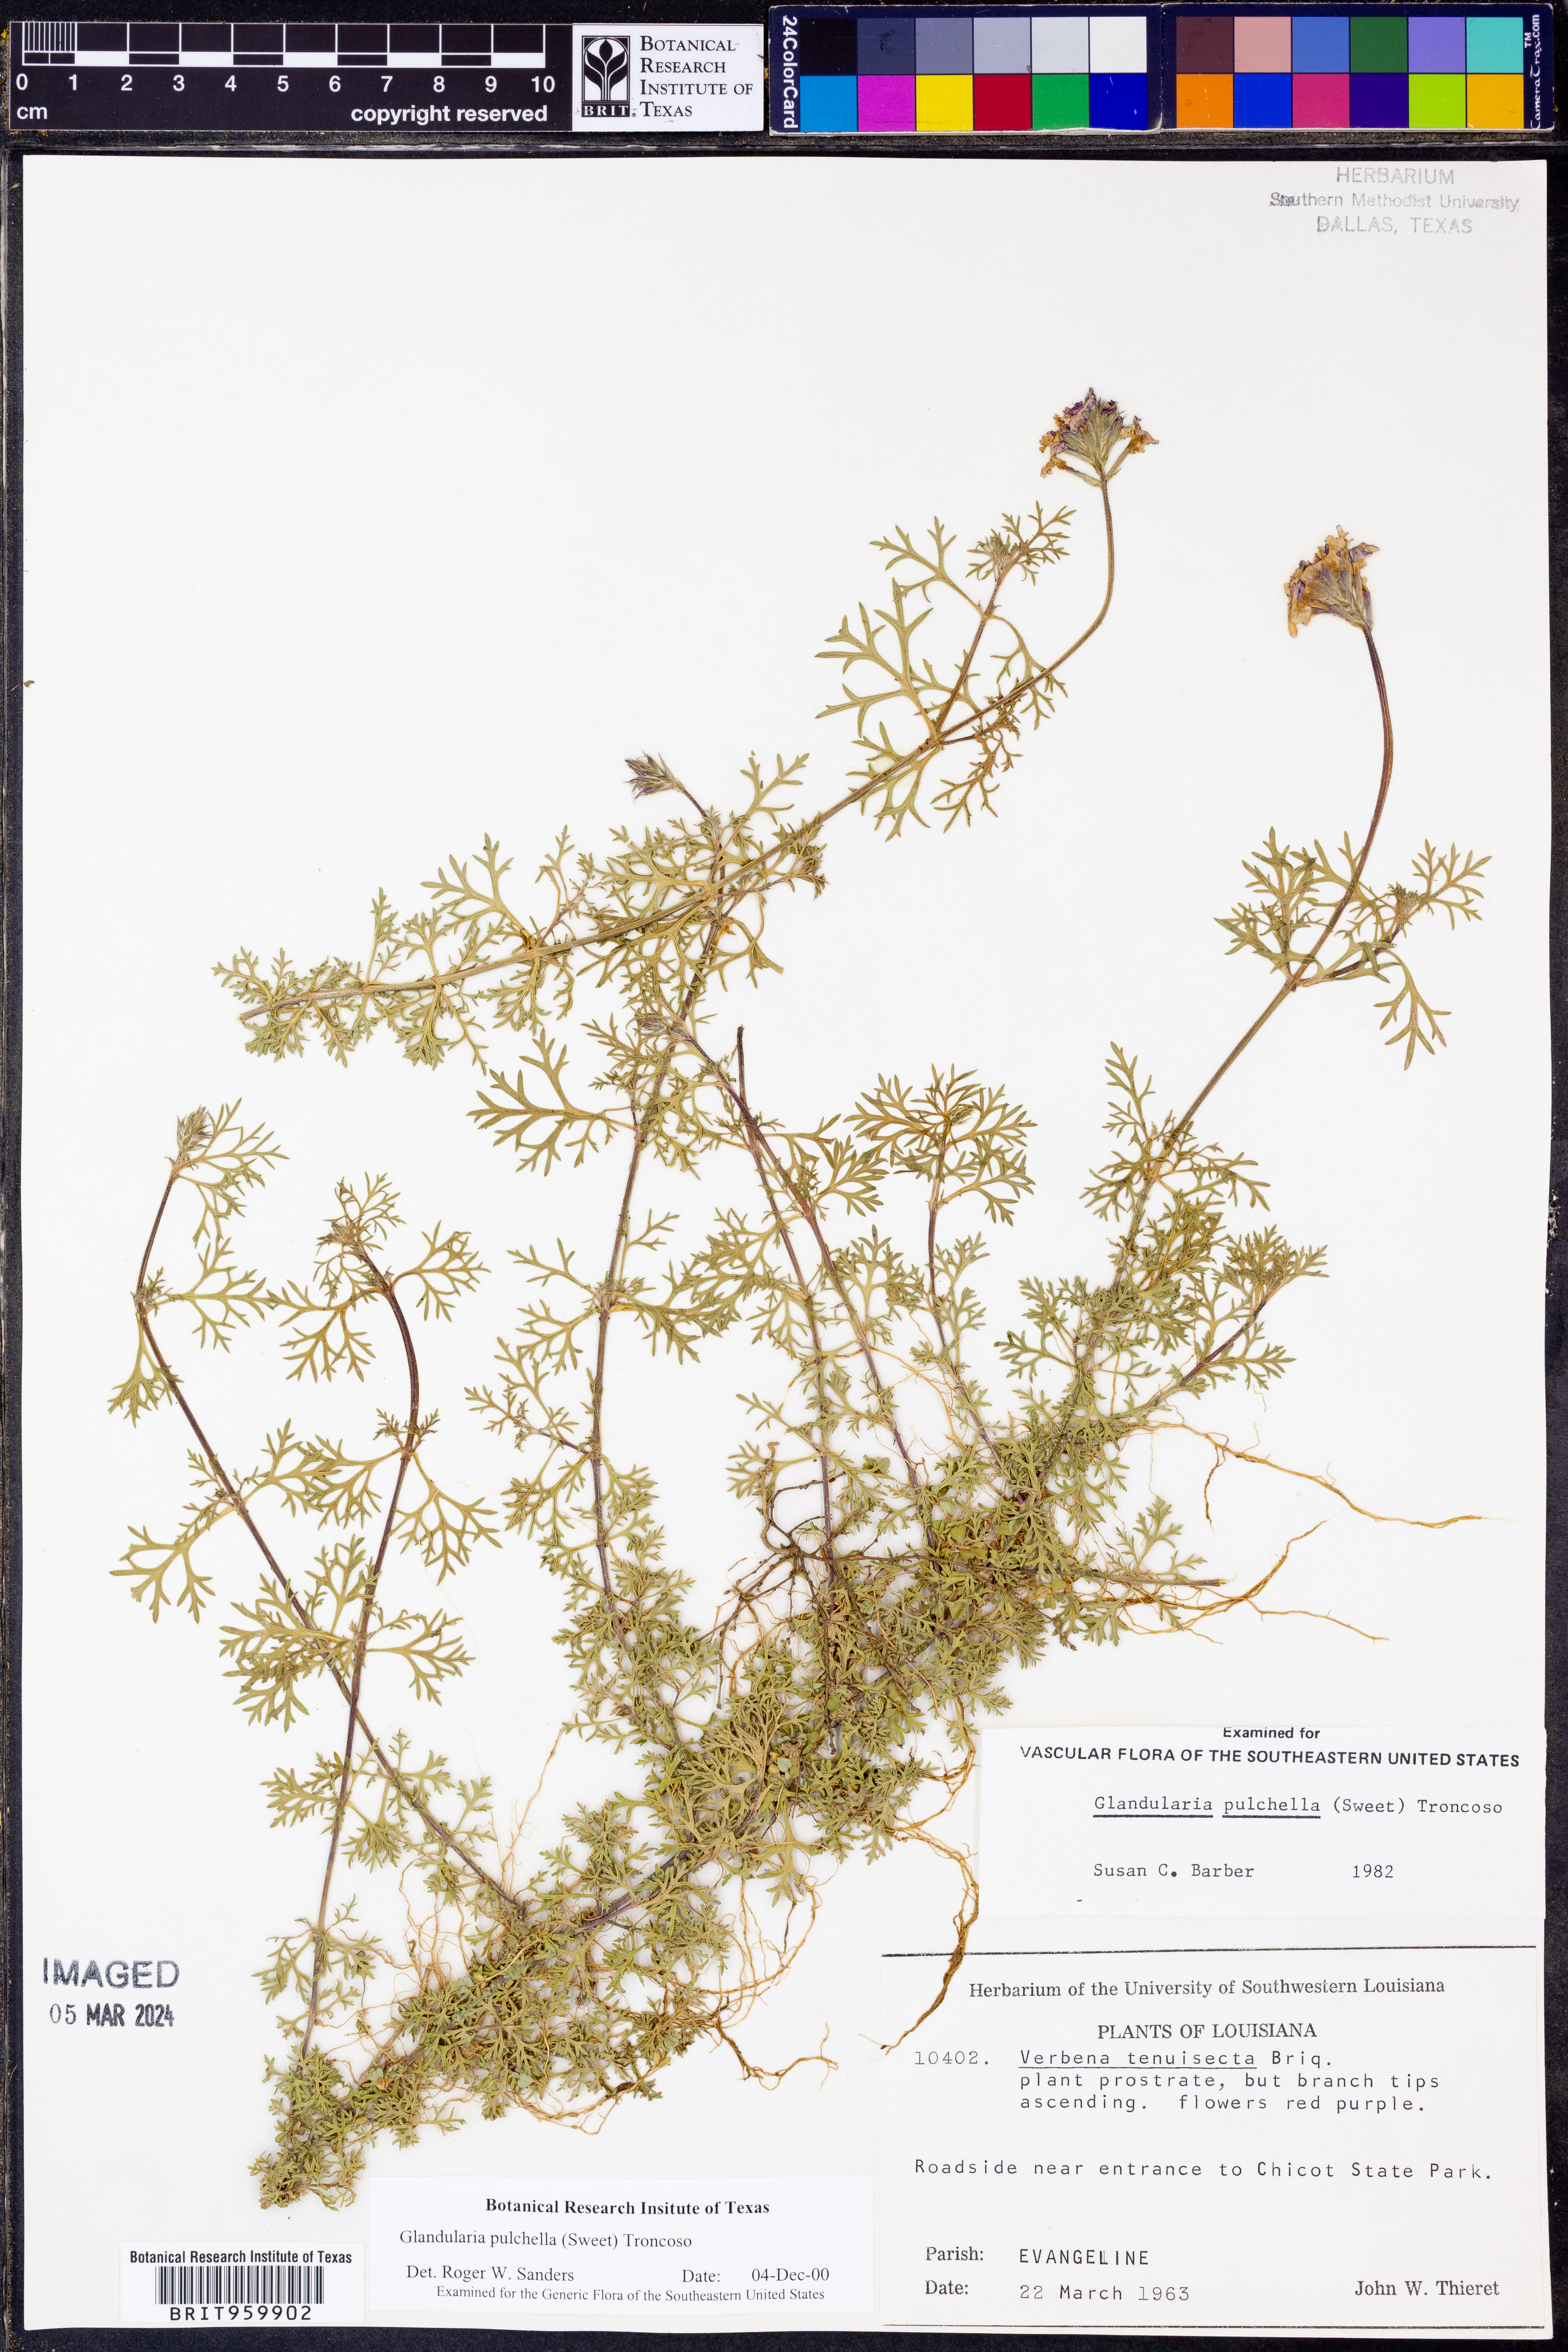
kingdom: Plantae
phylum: Tracheophyta
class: Magnoliopsida
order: Lamiales
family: Verbenaceae
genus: Verbena
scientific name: Verbena tenera
